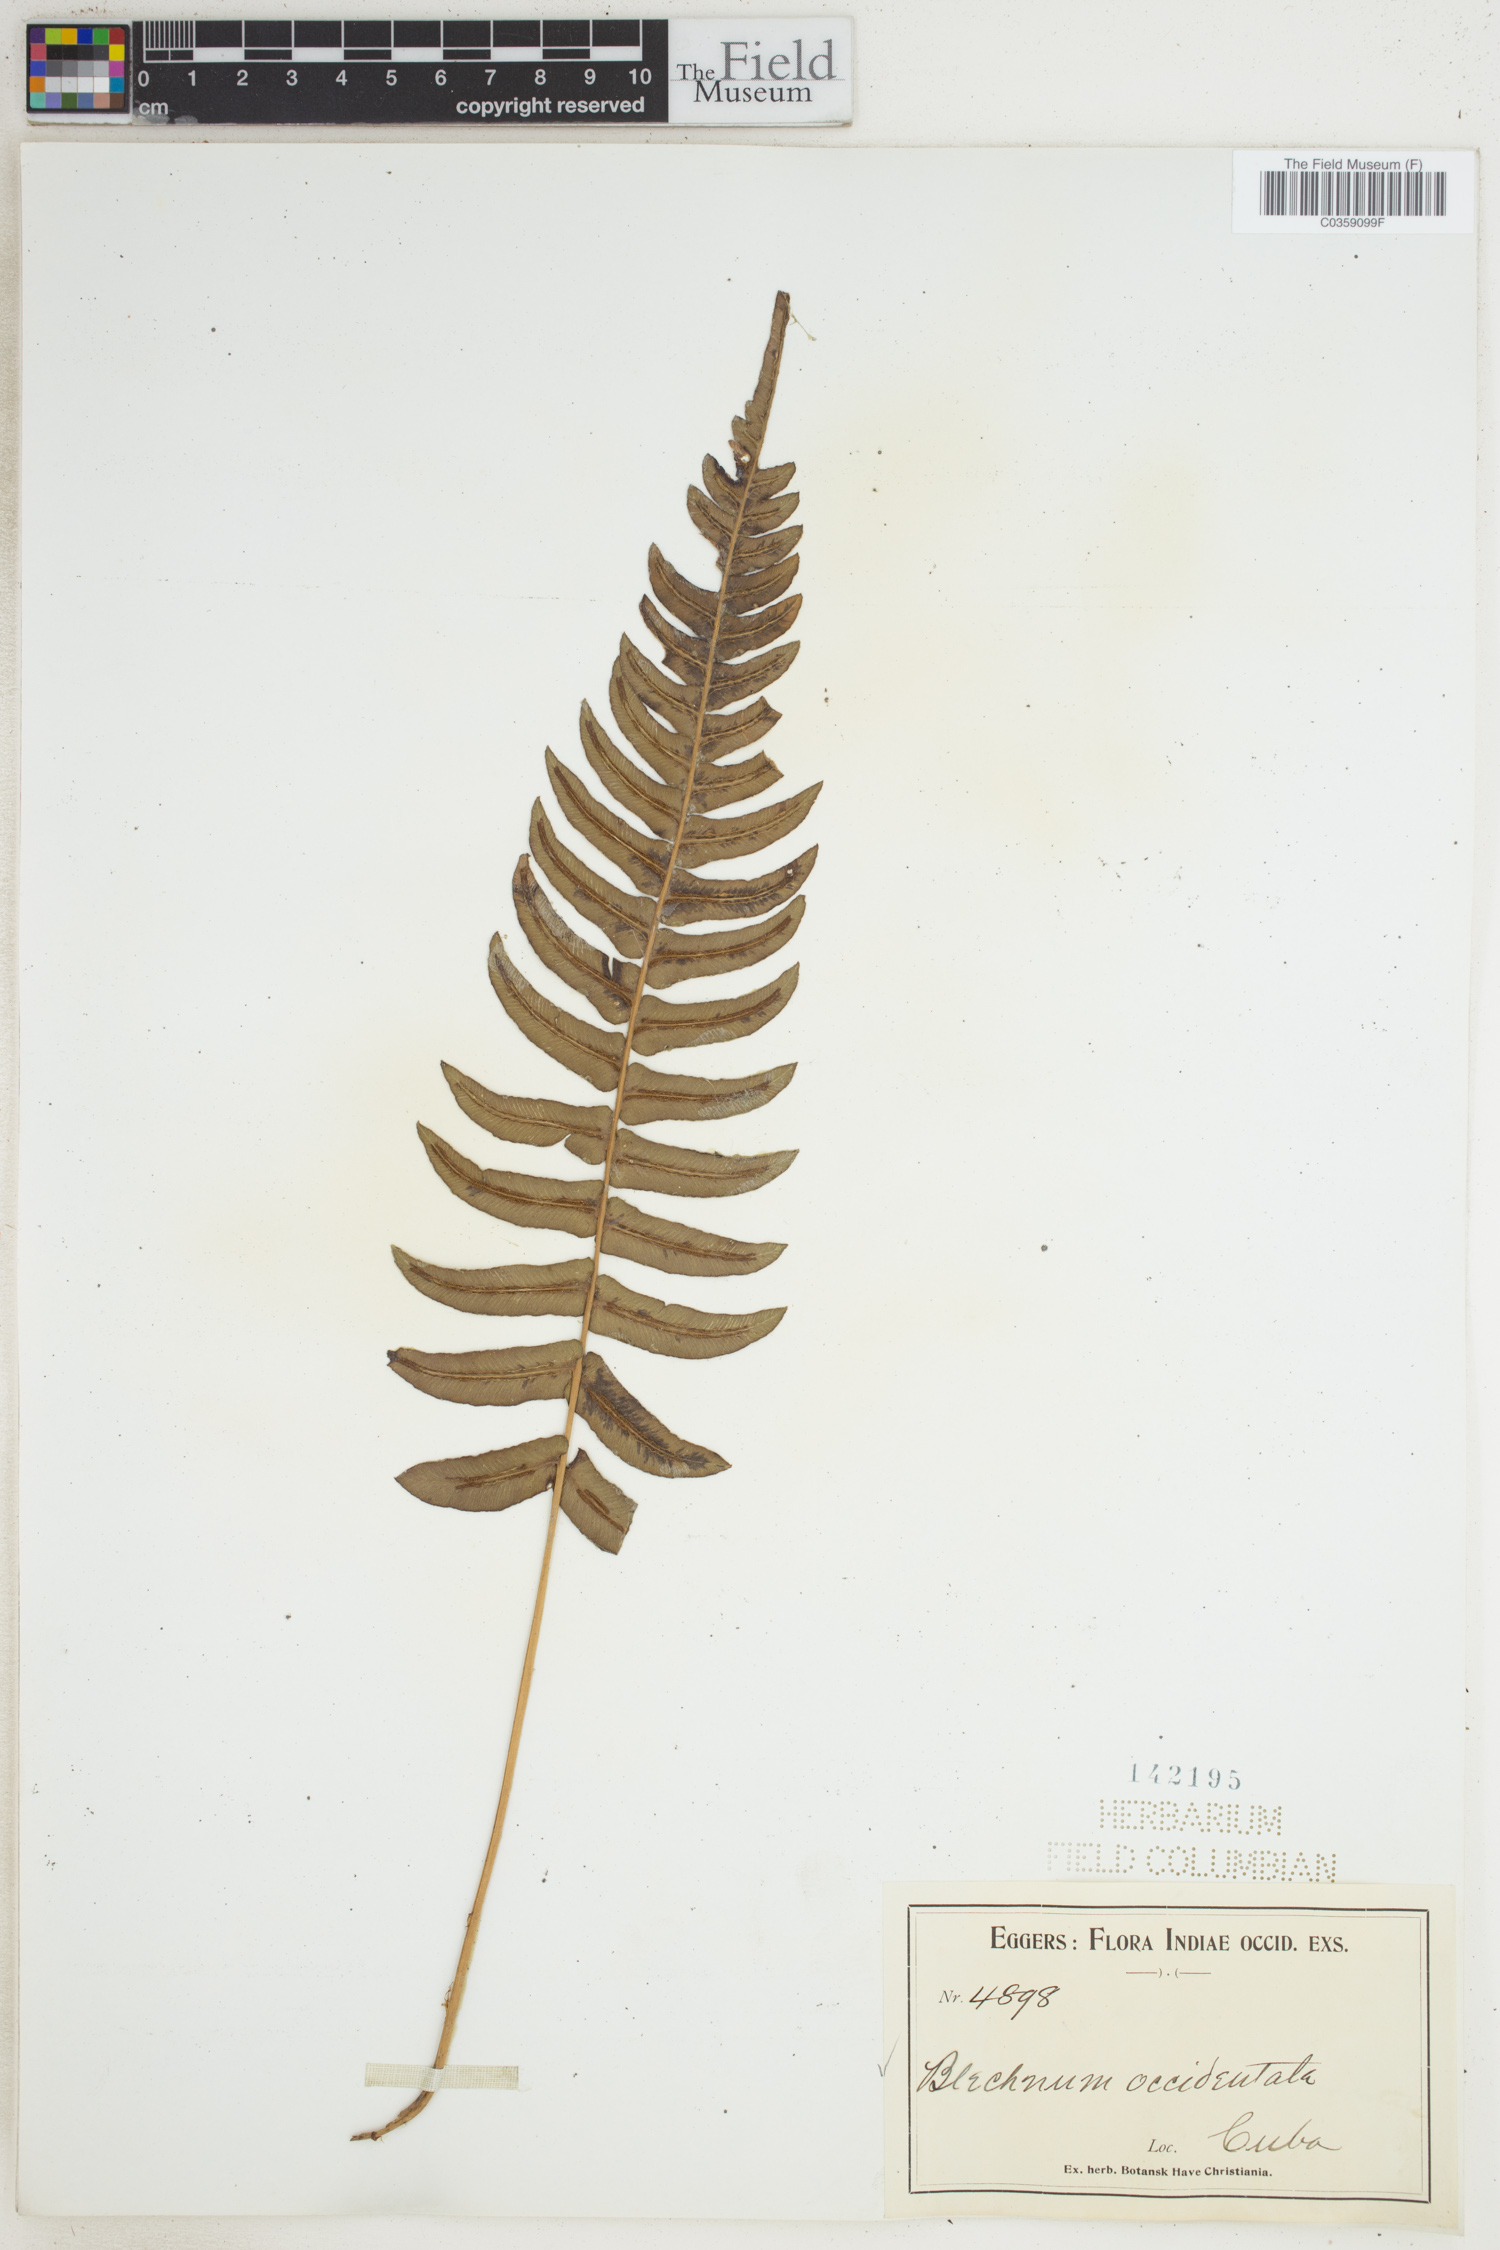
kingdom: Plantae
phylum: Tracheophyta
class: Polypodiopsida
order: Polypodiales
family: Blechnaceae
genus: Blechnum
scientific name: Blechnum occidentale
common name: Hammock fern
